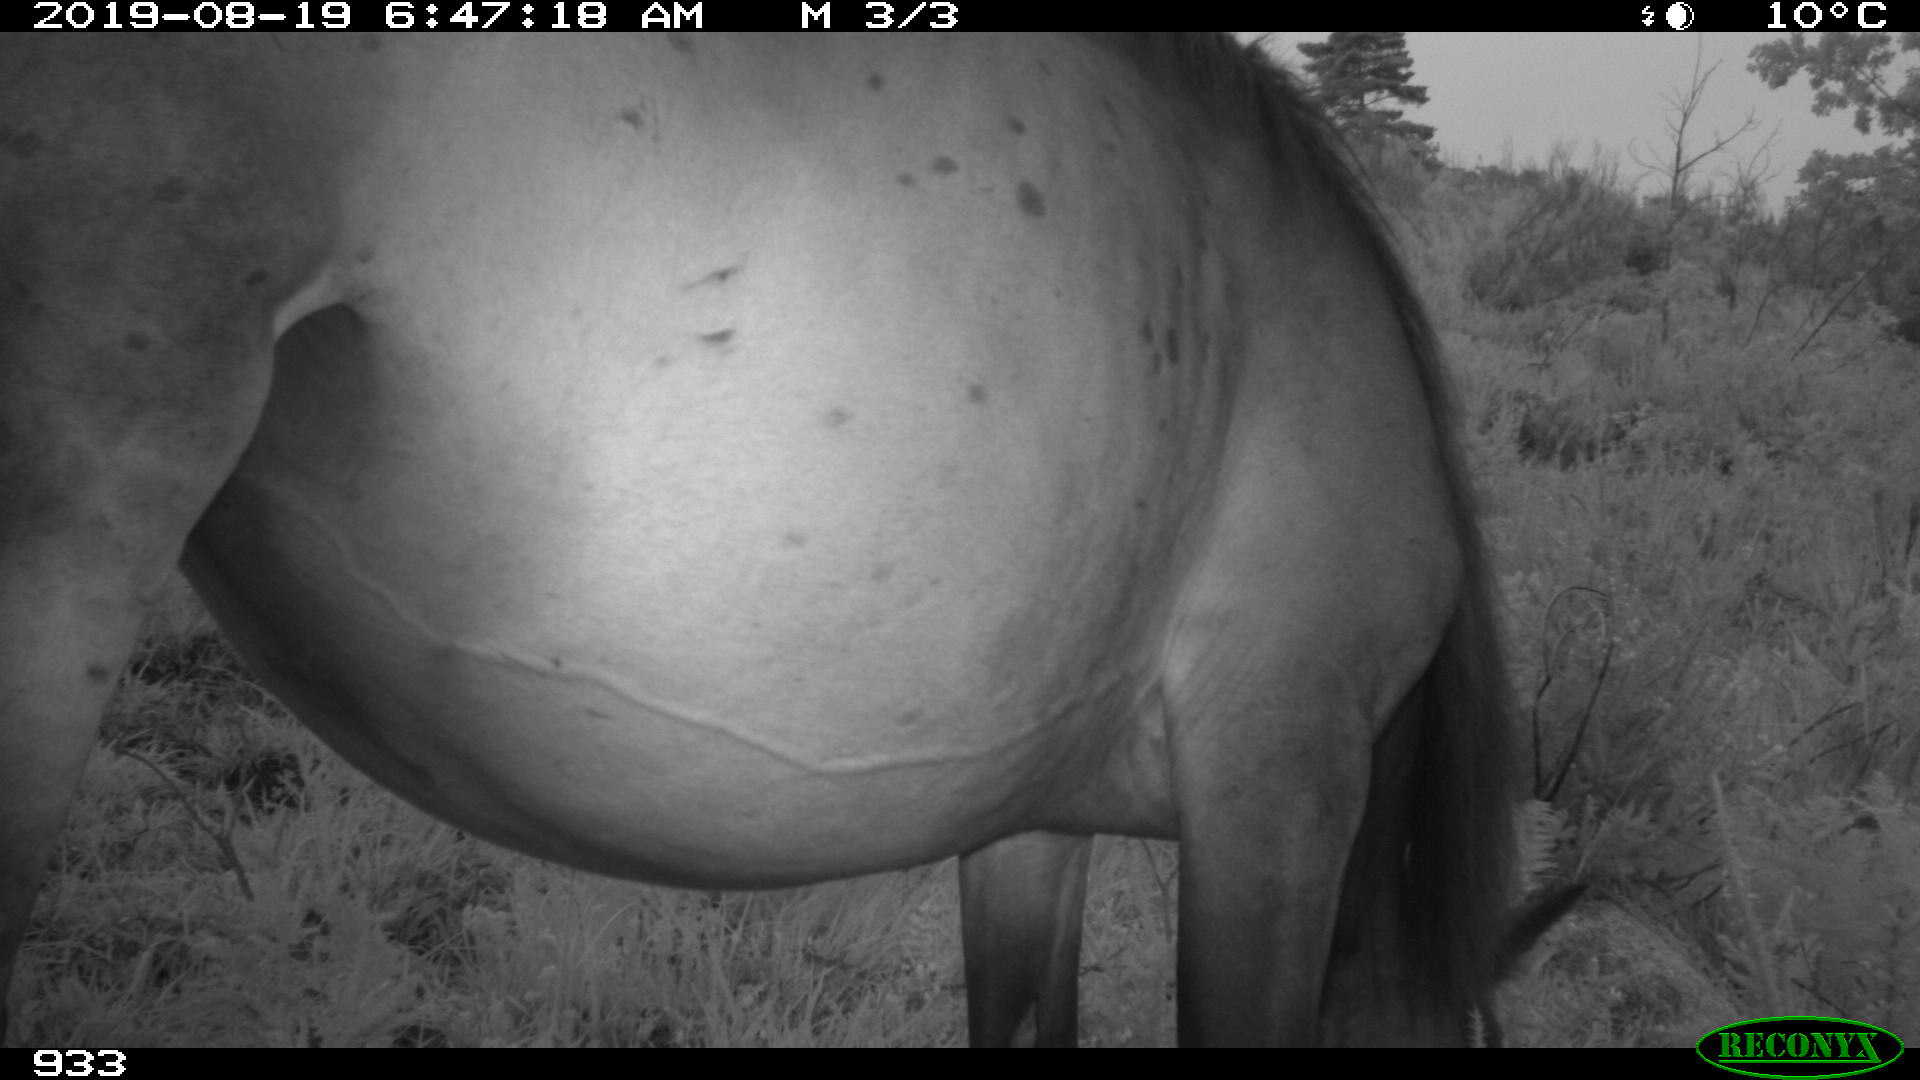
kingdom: Animalia
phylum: Chordata
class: Mammalia
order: Perissodactyla
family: Equidae
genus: Equus
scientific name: Equus caballus
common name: Horse
